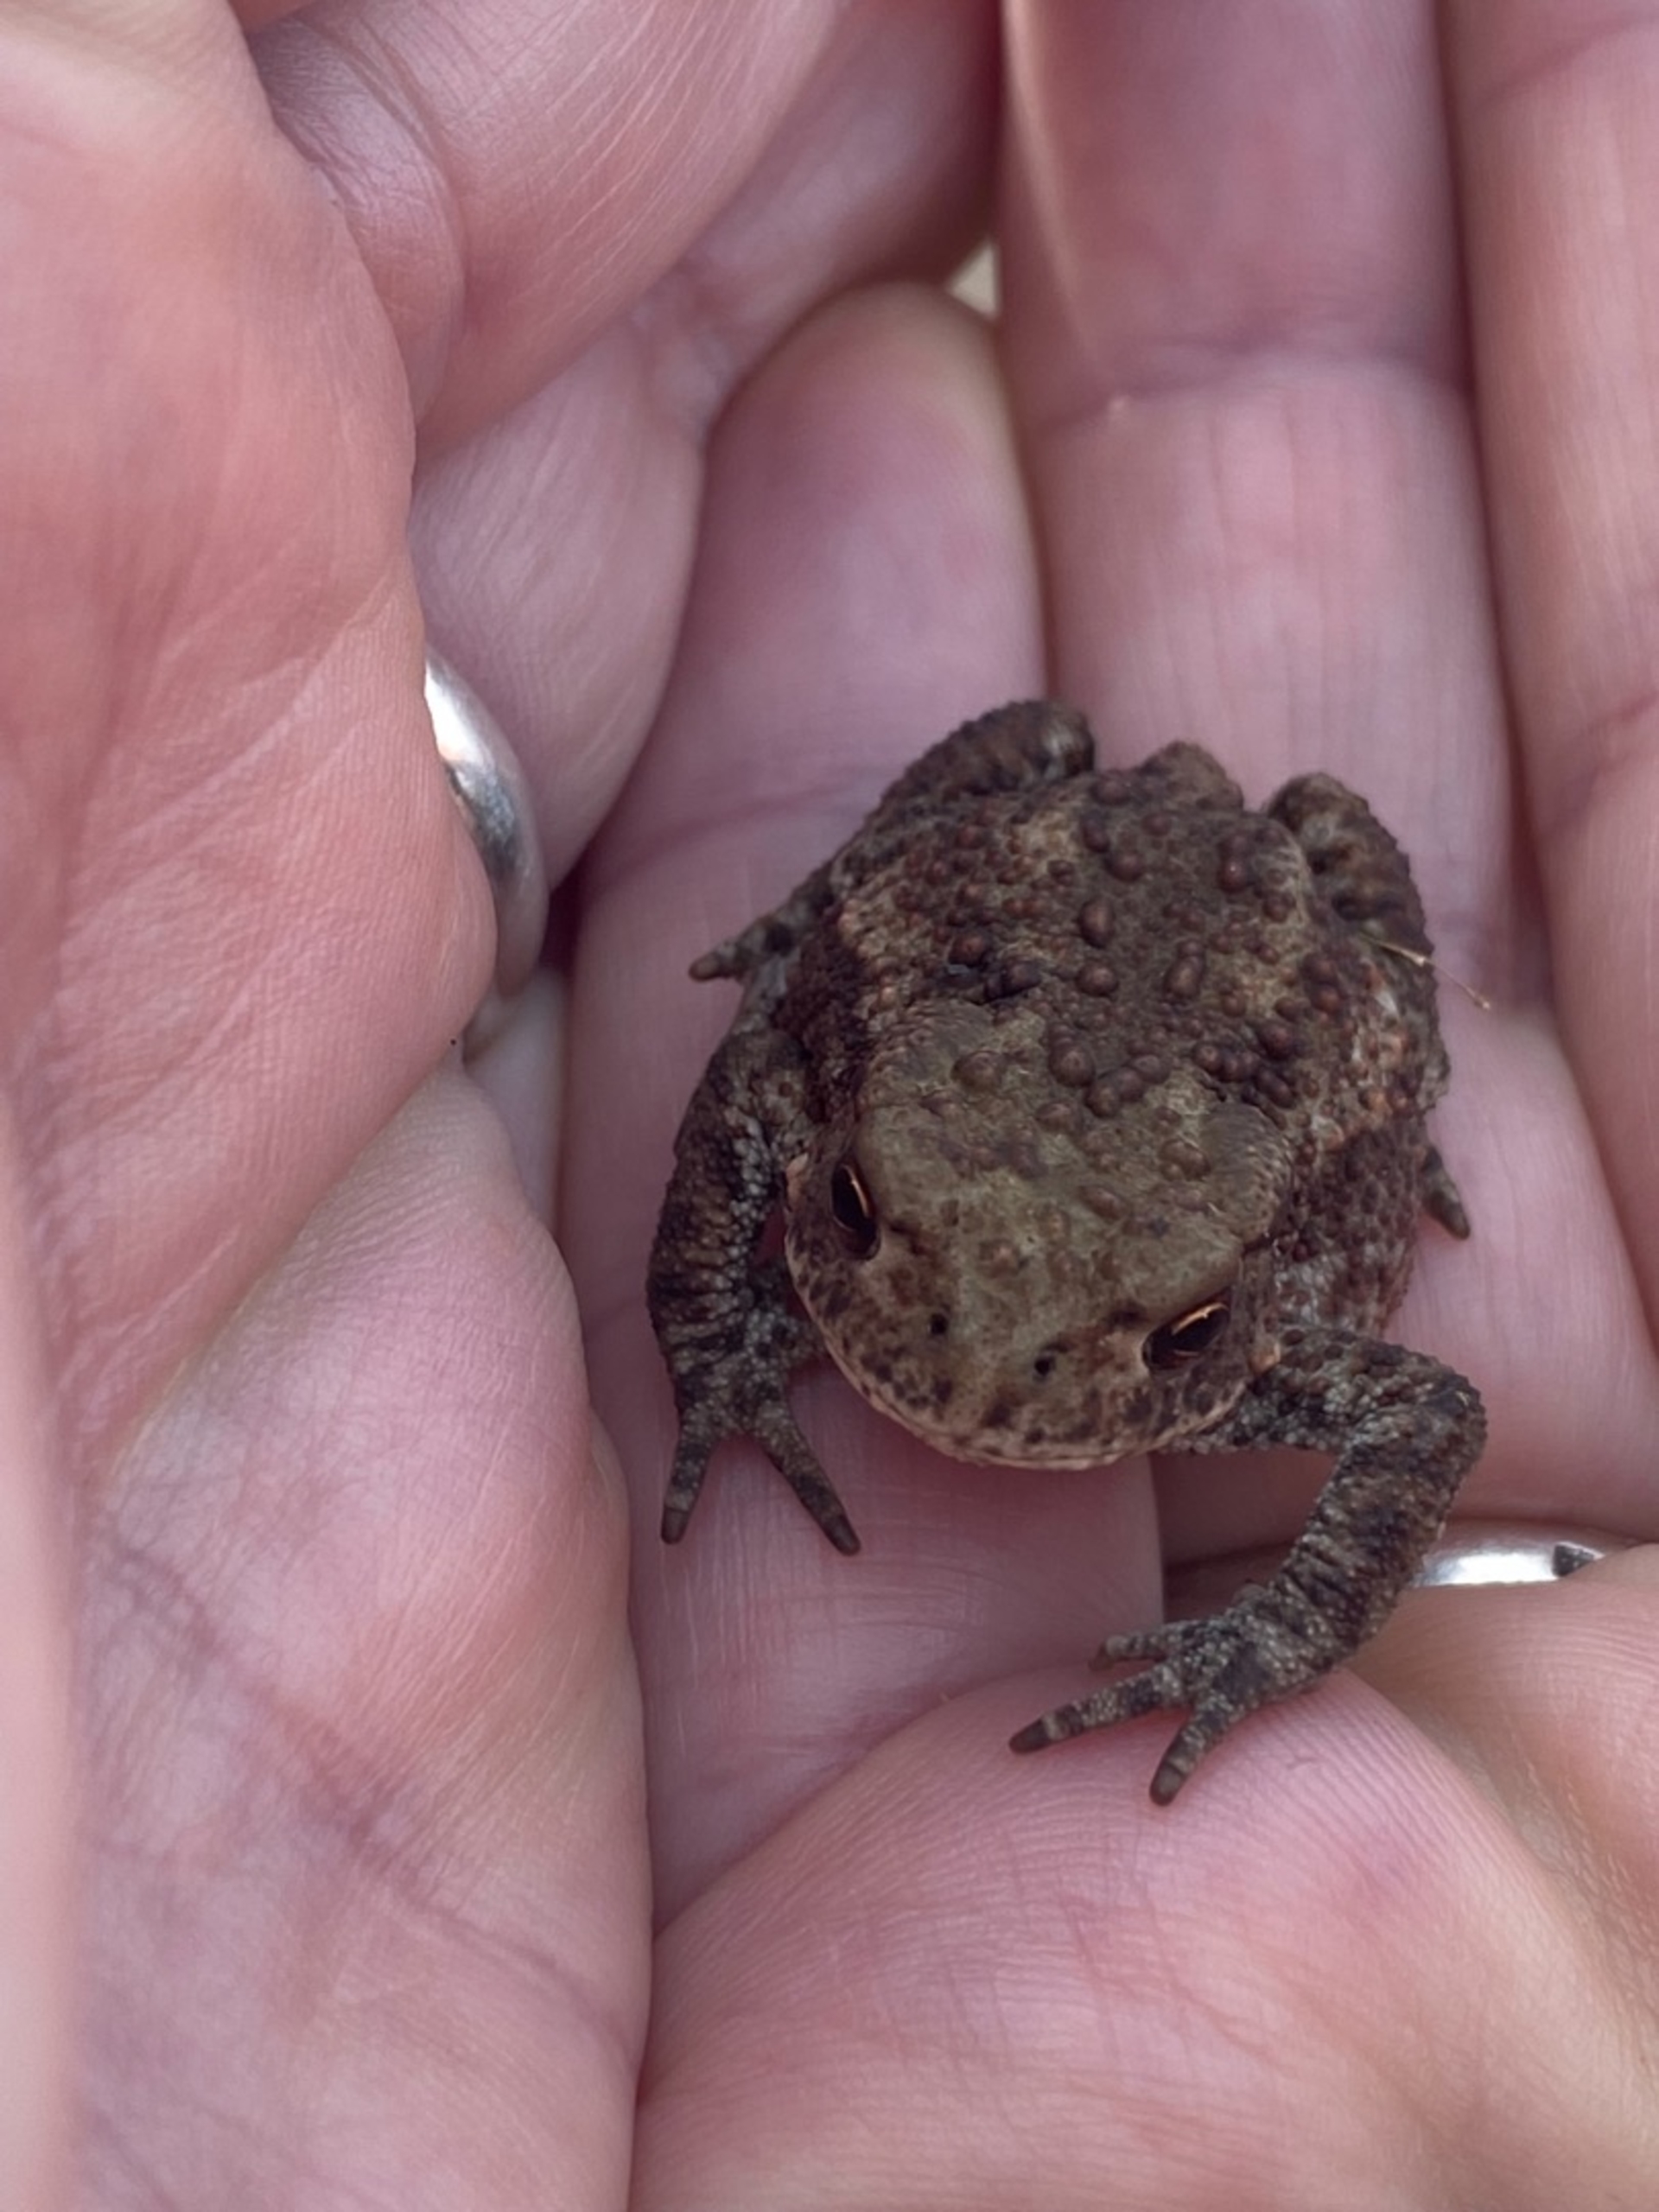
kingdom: Animalia
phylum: Chordata
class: Amphibia
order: Anura
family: Bufonidae
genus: Bufo
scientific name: Bufo bufo
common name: Skrubtudse
